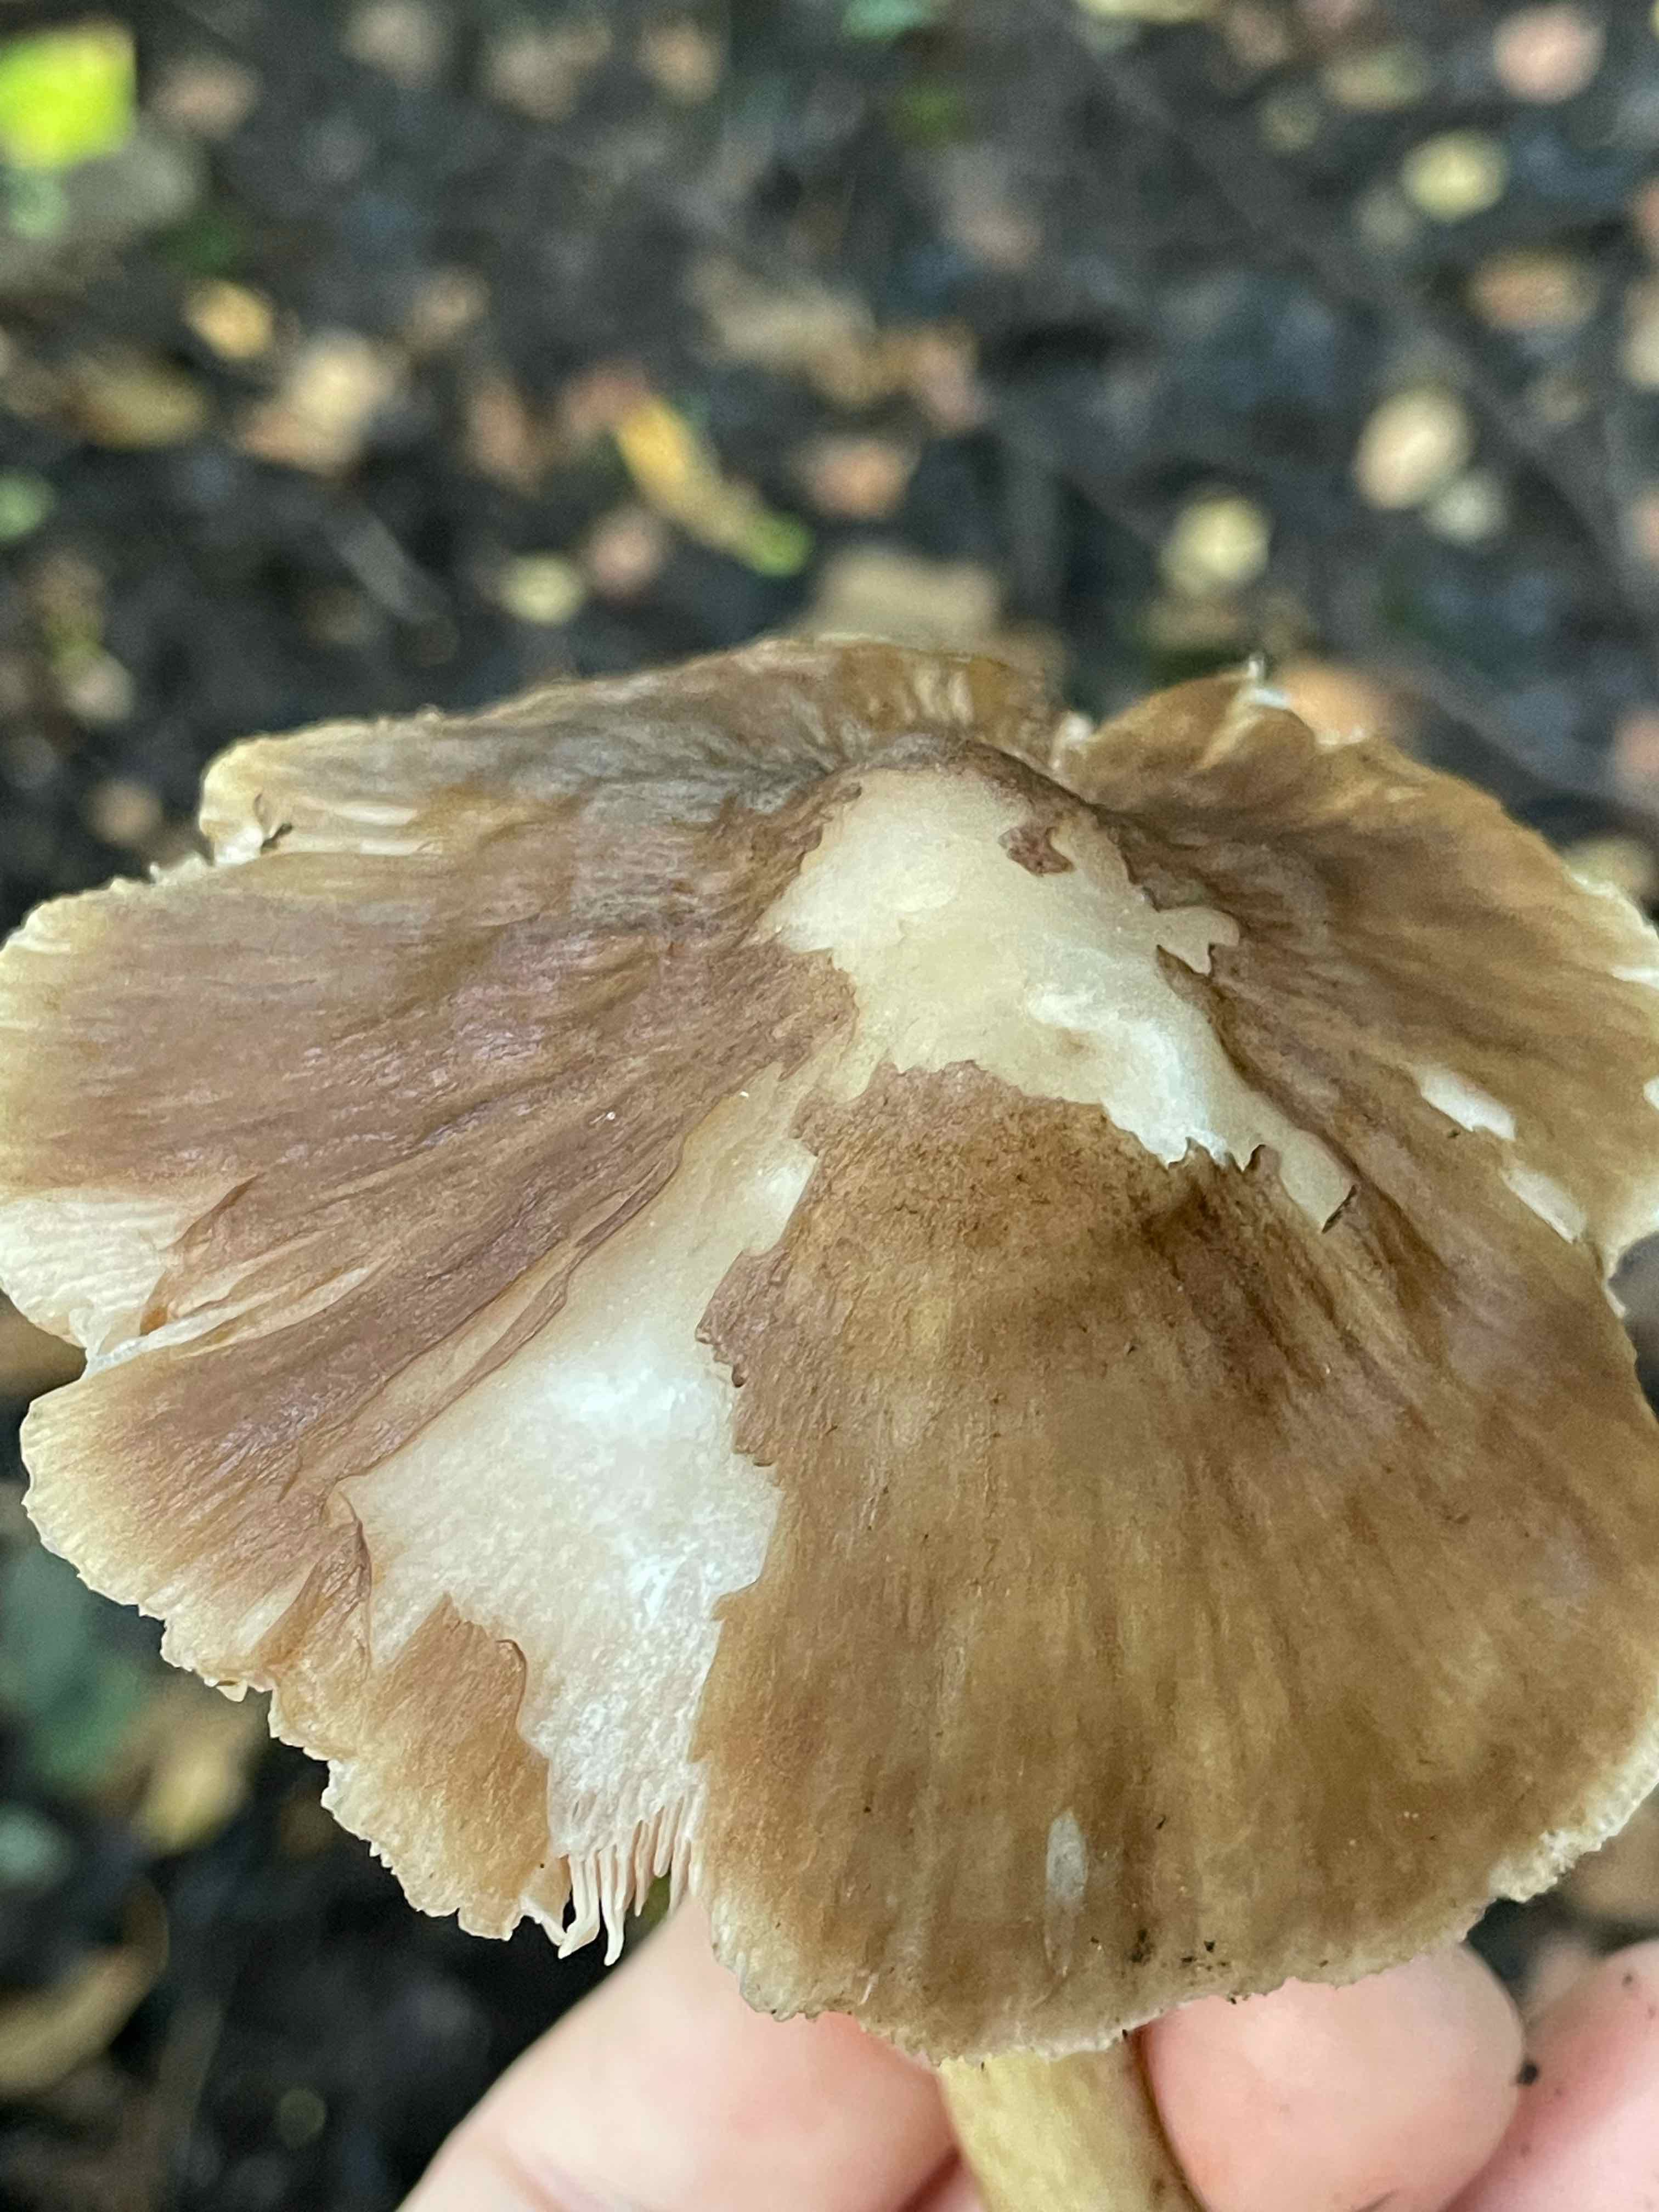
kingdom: Fungi
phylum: Basidiomycota
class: Agaricomycetes
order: Agaricales
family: Pluteaceae
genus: Pluteus
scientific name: Pluteus cervinus
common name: sodfarvet skærmhat
